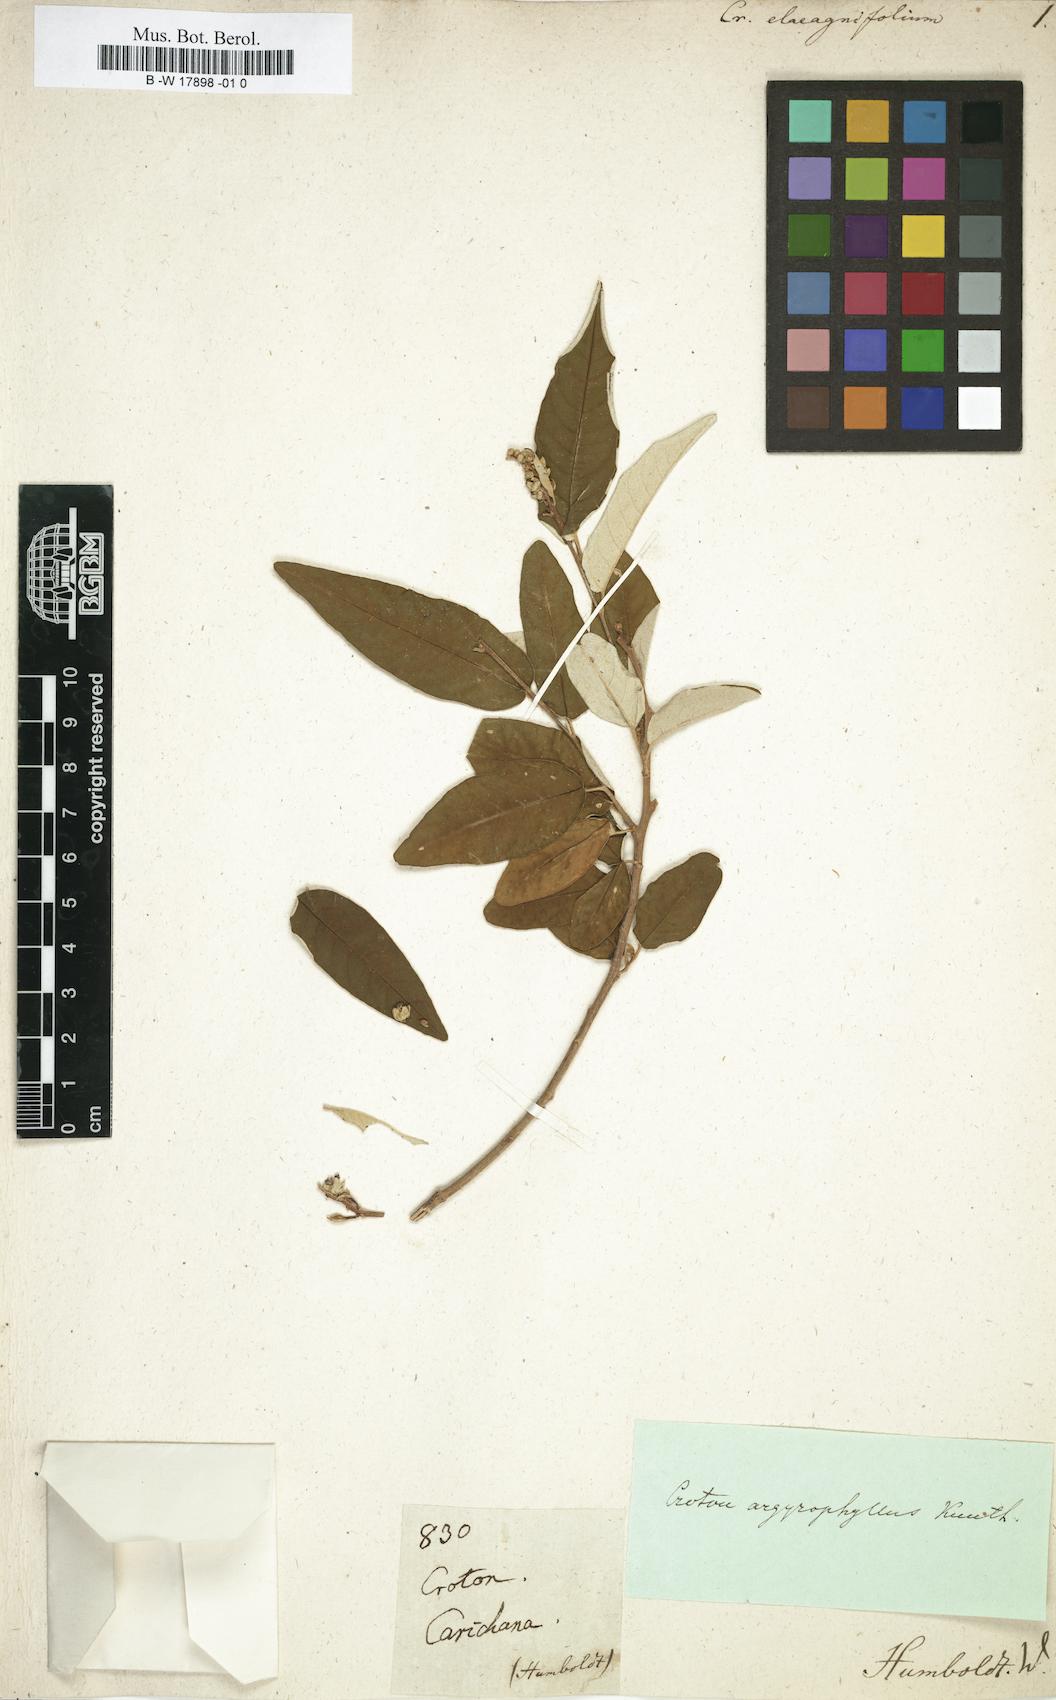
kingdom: Plantae
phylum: Tracheophyta
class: Magnoliopsida
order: Malpighiales
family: Euphorbiaceae
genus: Croton
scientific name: Croton dioicus
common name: Grassland croton
